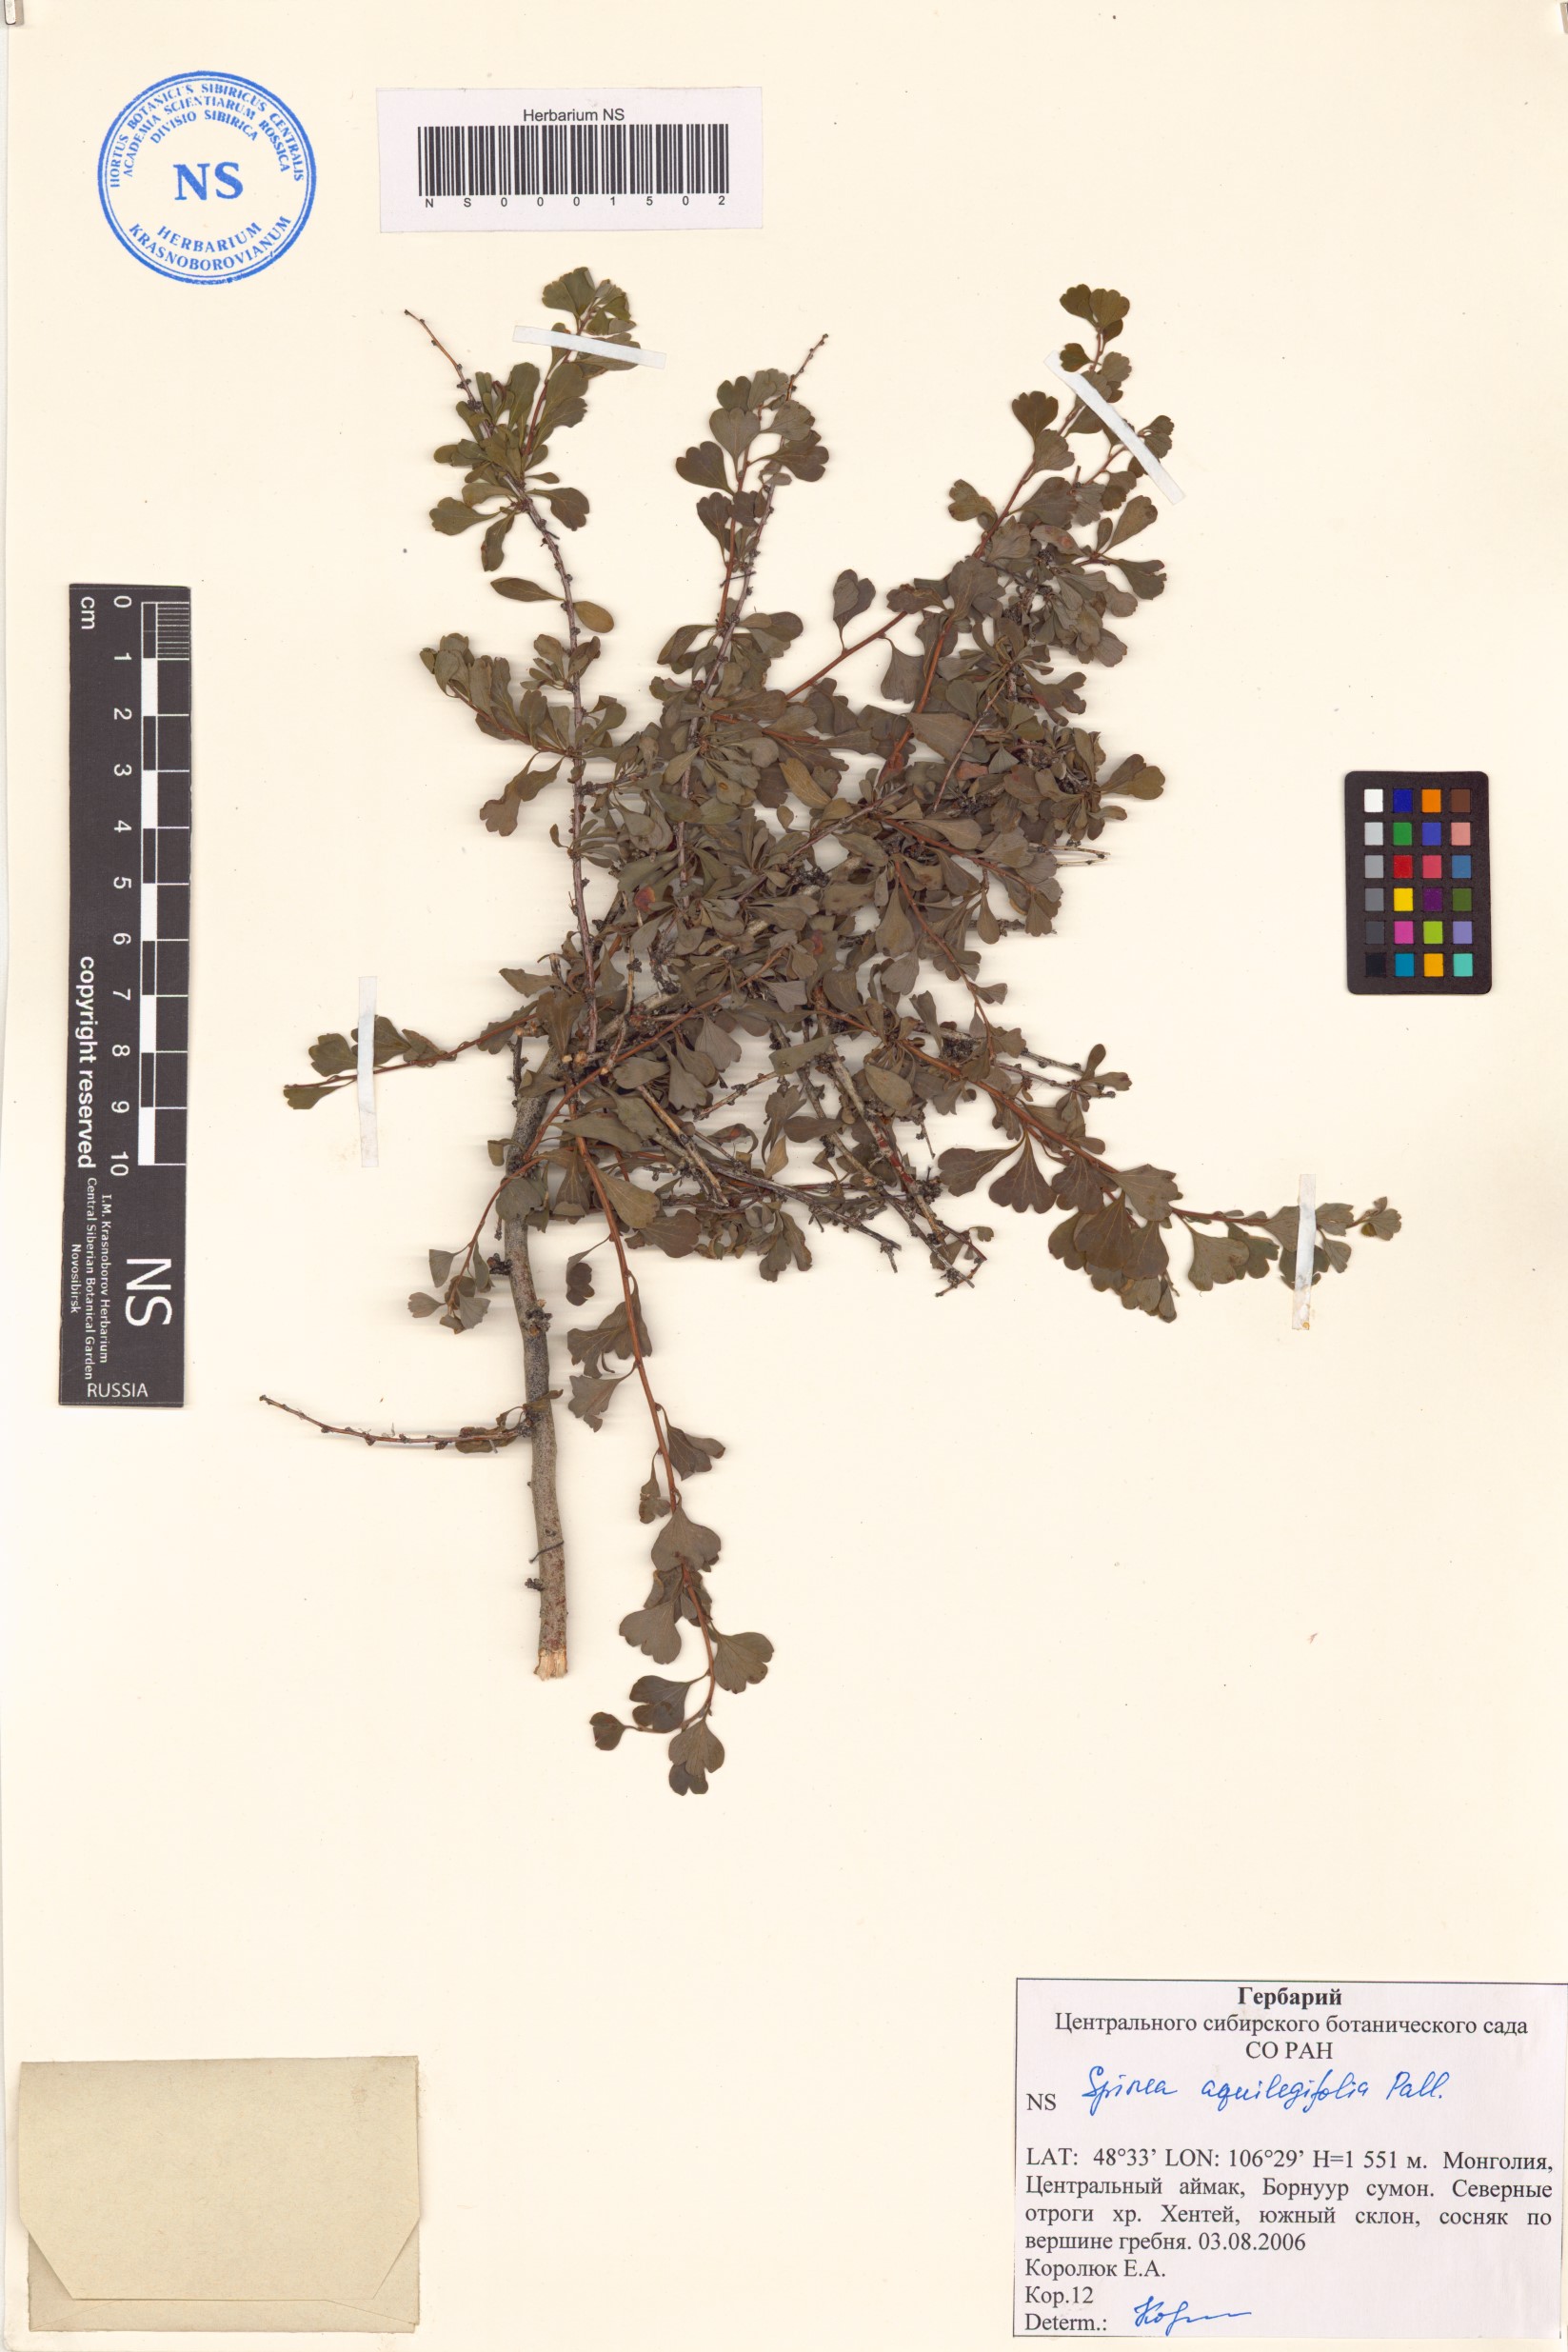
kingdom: Plantae
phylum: Tracheophyta
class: Magnoliopsida
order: Rosales
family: Rosaceae
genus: Spiraea
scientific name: Spiraea aquilegifolia
